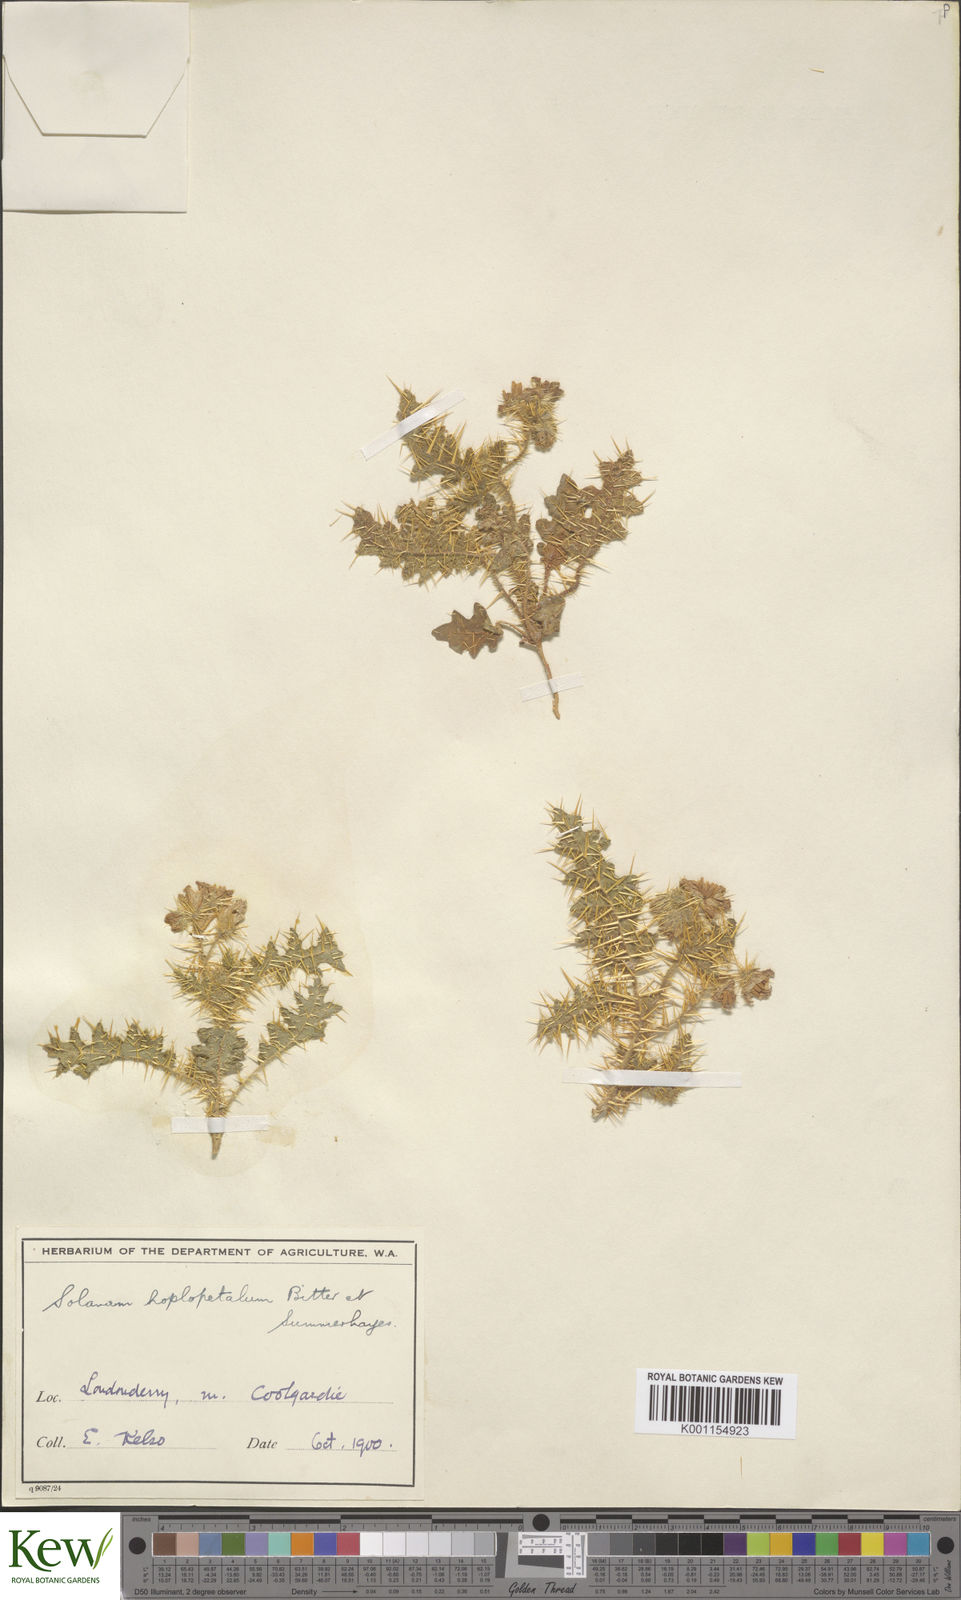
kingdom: Plantae
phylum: Tracheophyta
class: Magnoliopsida
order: Solanales
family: Solanaceae
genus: Solanum
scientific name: Solanum hoplopetalum
